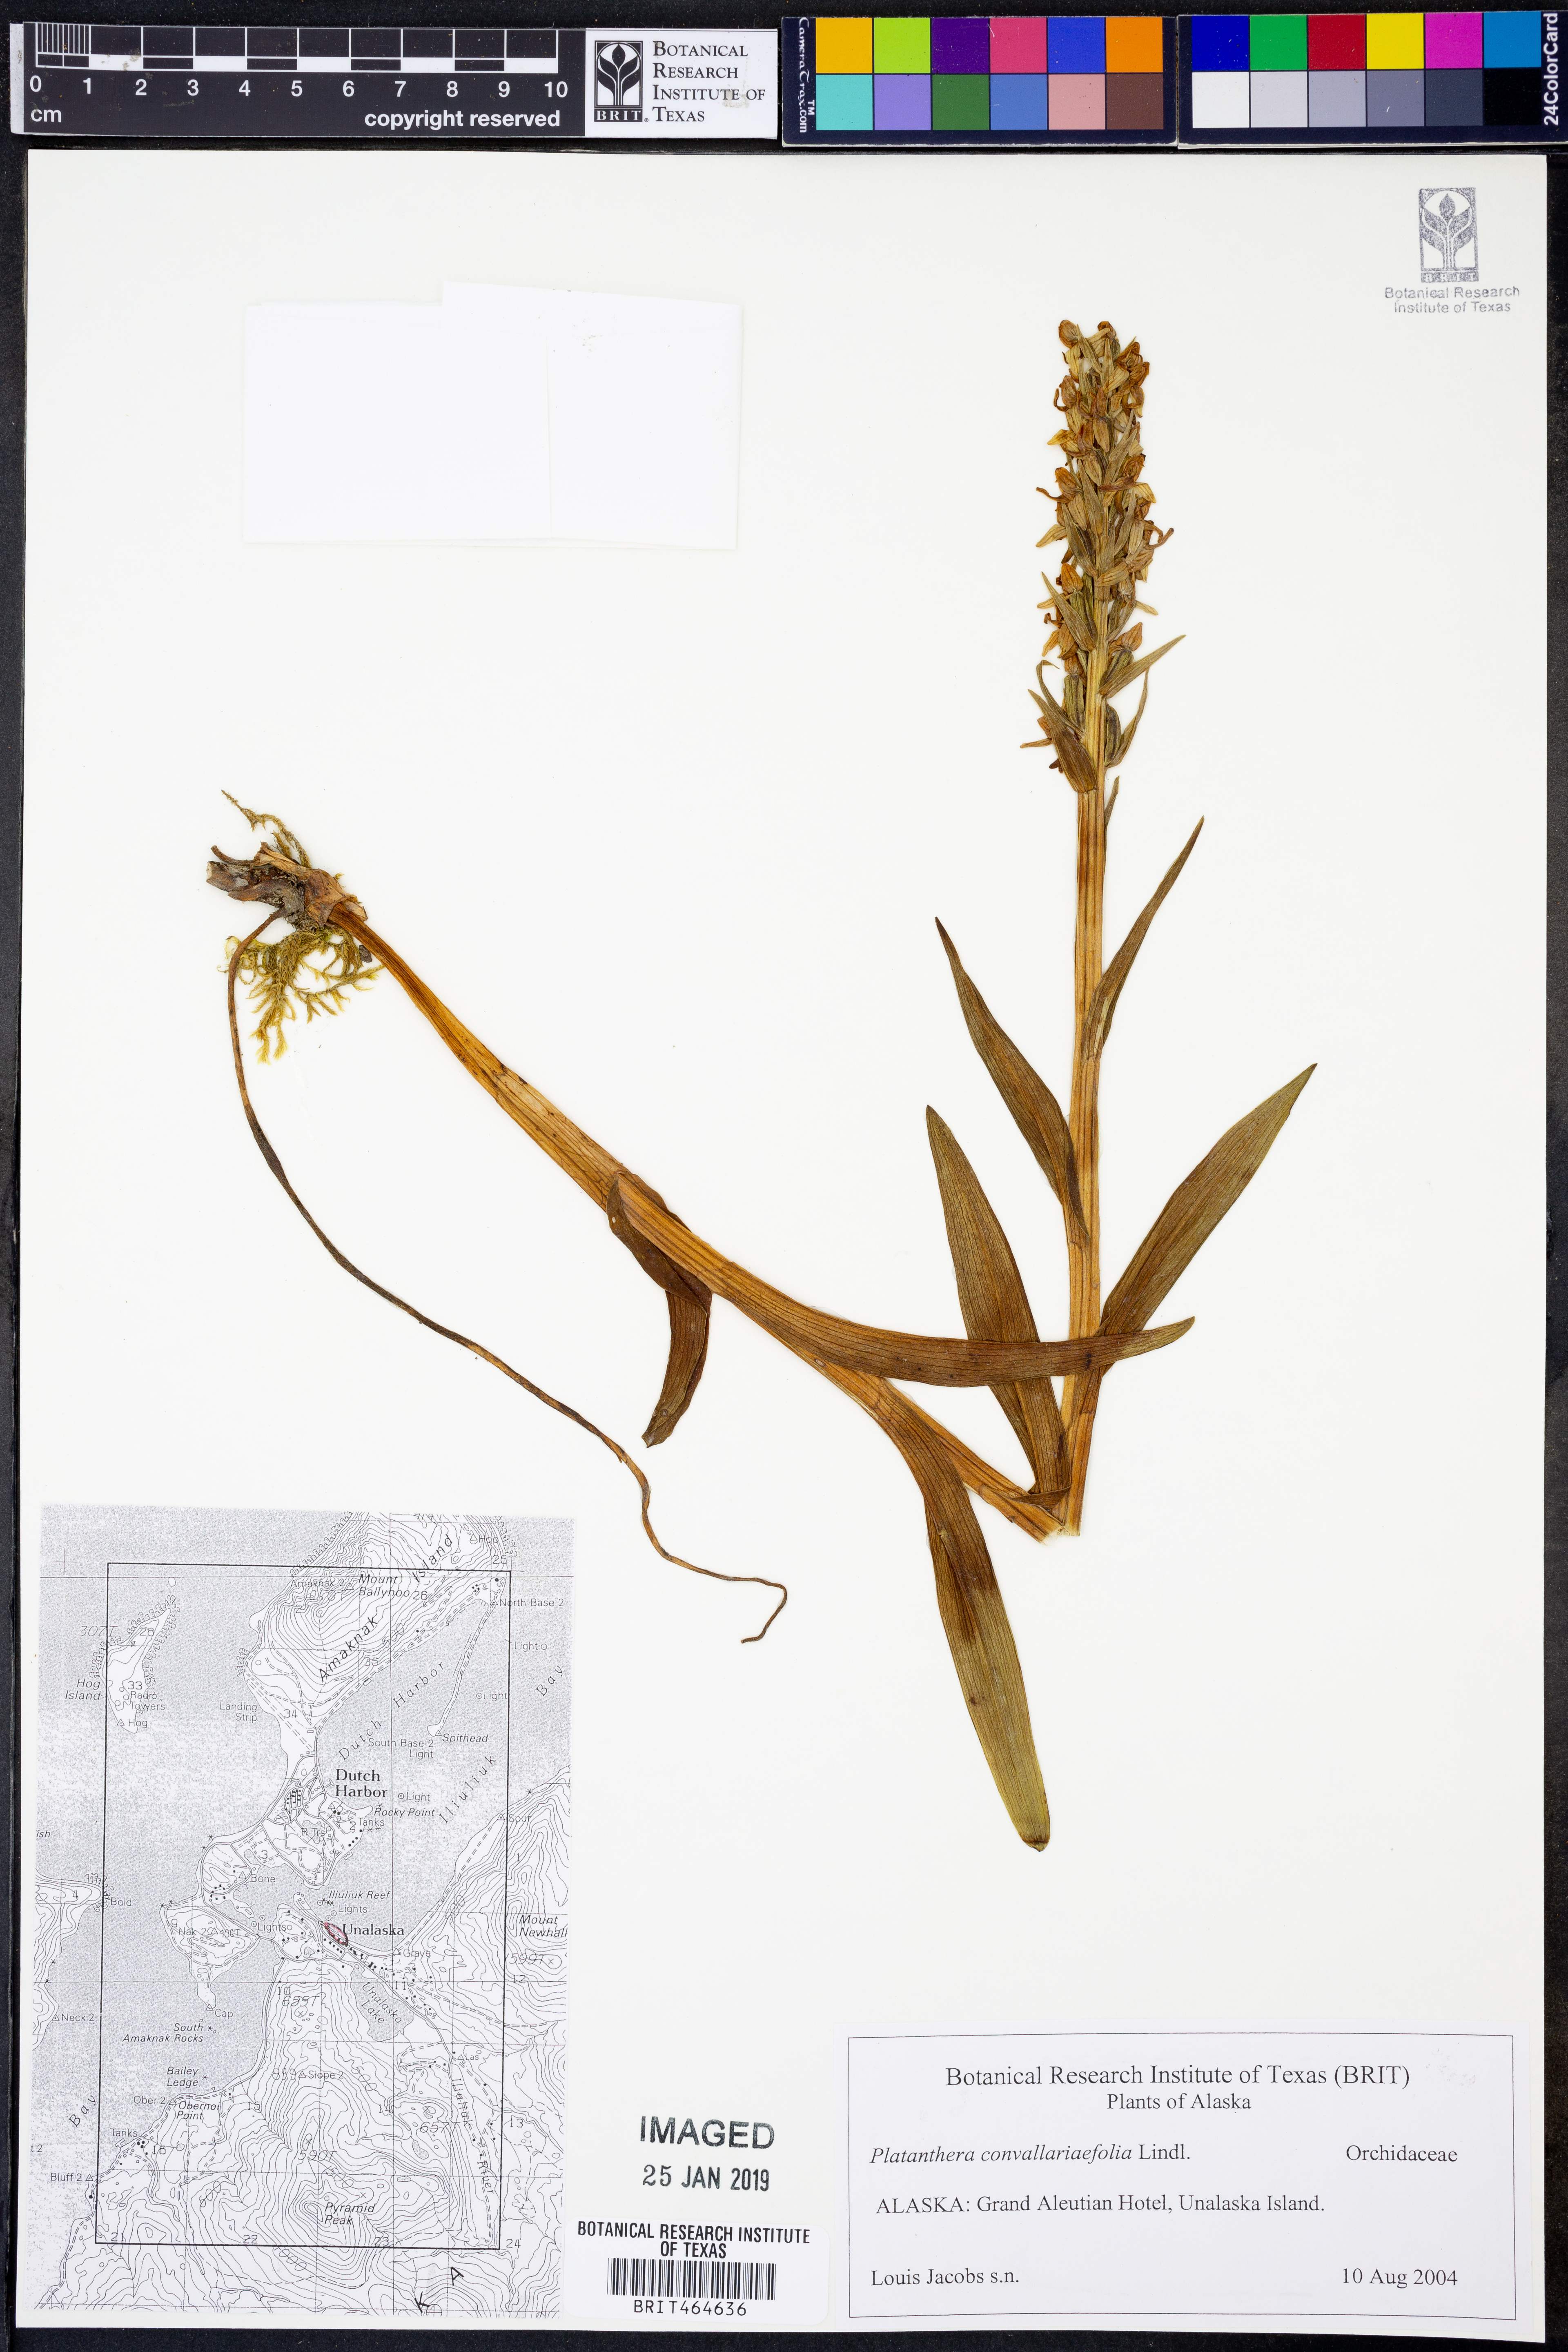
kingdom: Plantae
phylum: Tracheophyta
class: Liliopsida
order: Asparagales
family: Orchidaceae
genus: Platanthera
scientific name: Platanthera convallariifolia
